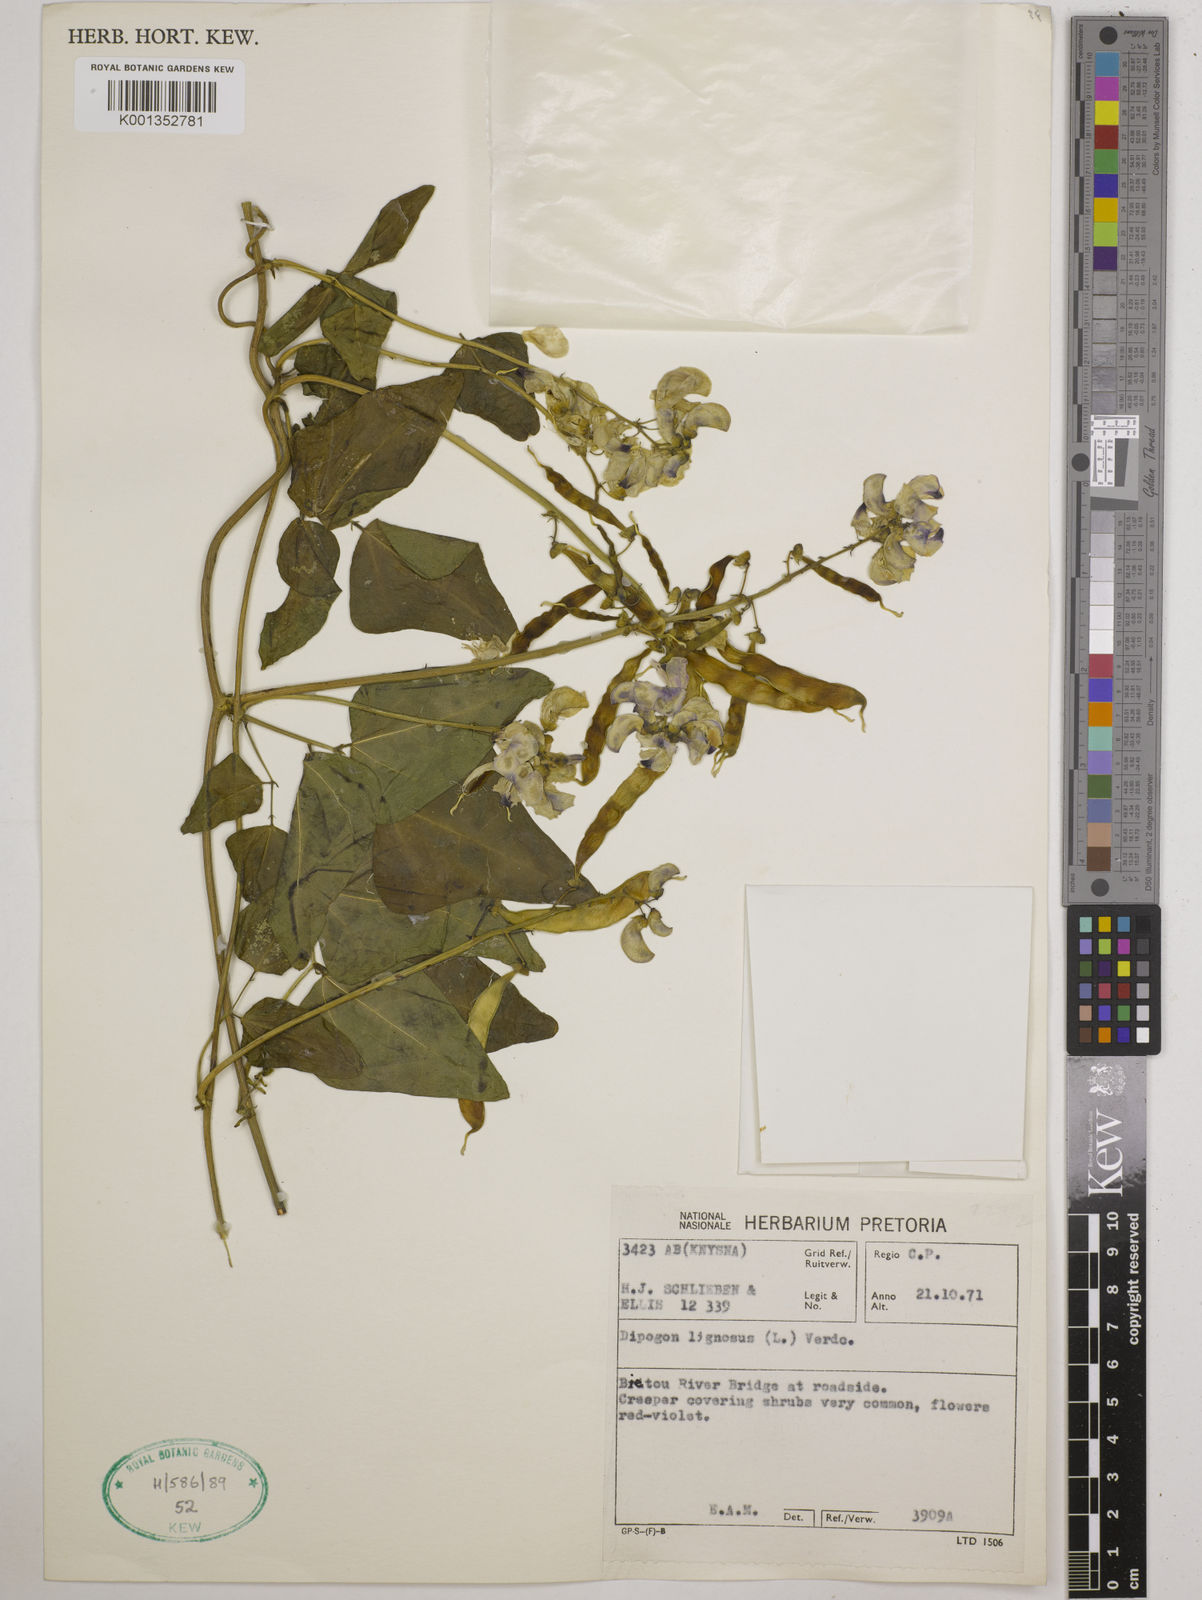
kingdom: Plantae
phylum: Tracheophyta
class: Magnoliopsida
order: Fabales
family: Fabaceae
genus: Dipogon
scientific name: Dipogon lignosus
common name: Okie bean
